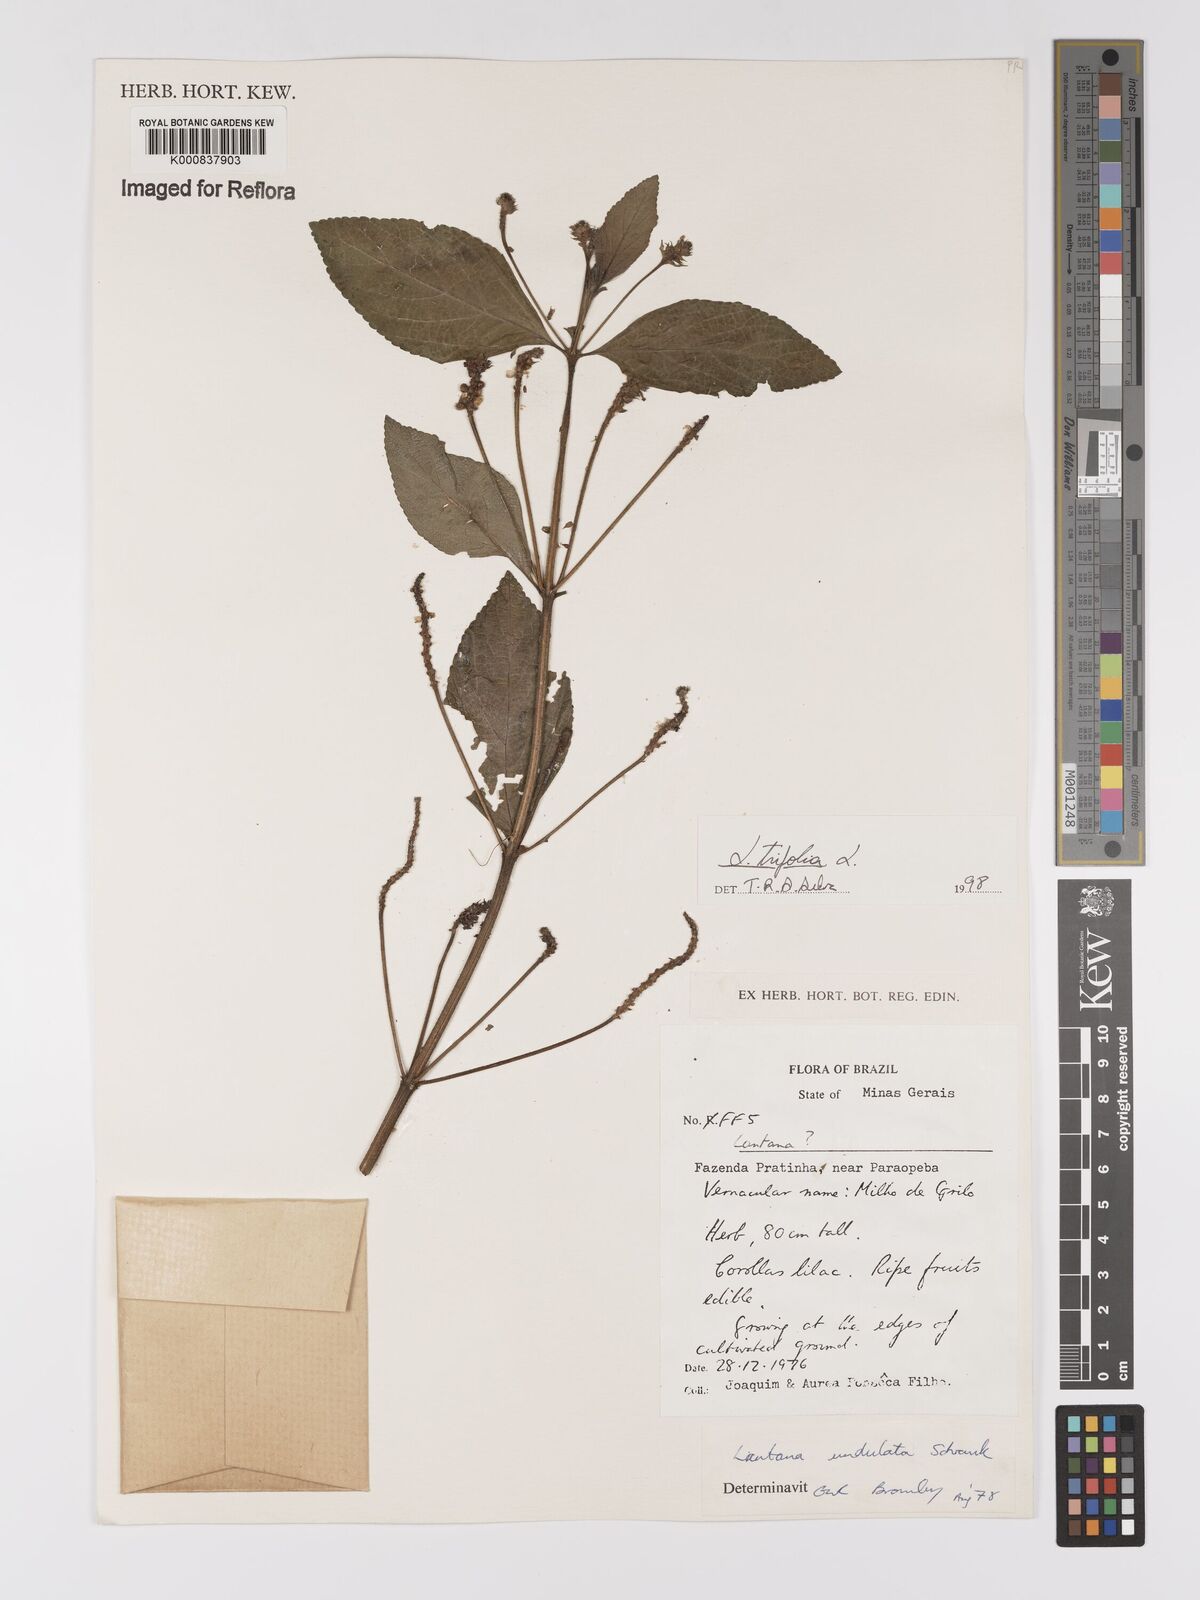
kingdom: Plantae
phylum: Tracheophyta
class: Magnoliopsida
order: Lamiales
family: Verbenaceae
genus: Lantana
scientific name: Lantana trifolia
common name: Sweet-sage
